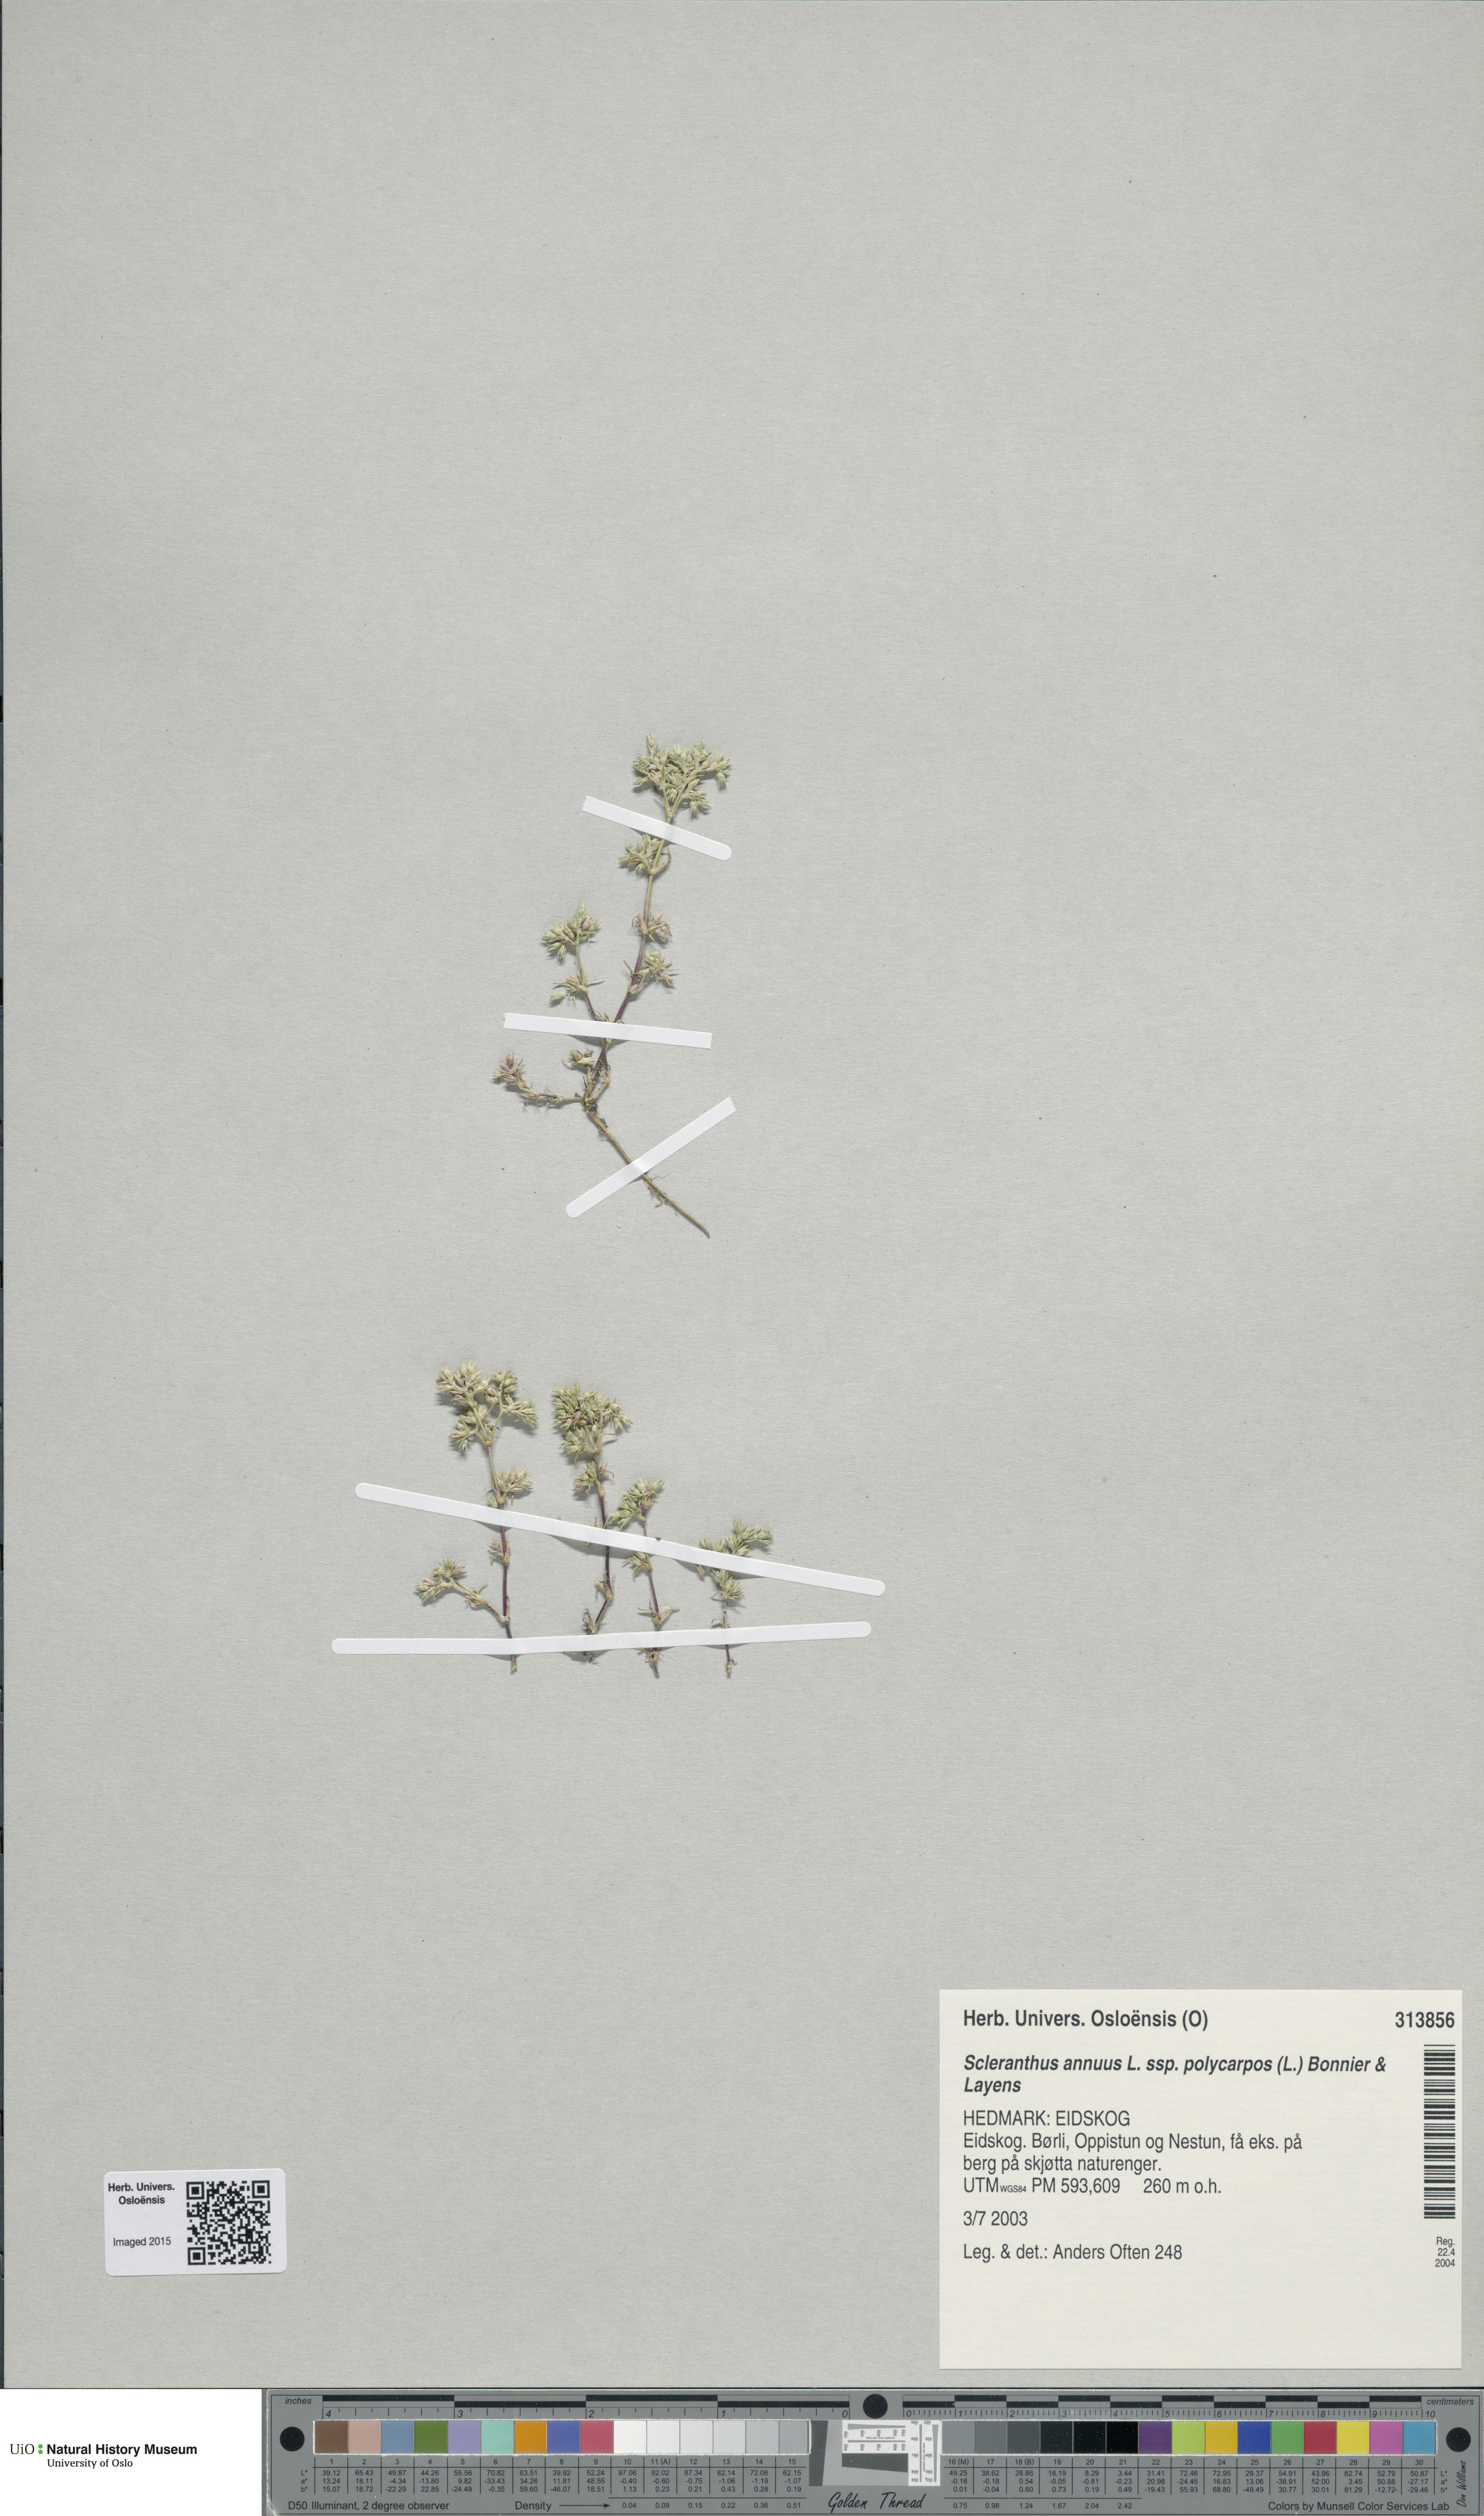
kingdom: Plantae
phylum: Tracheophyta
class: Magnoliopsida
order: Caryophyllales
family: Caryophyllaceae
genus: Scleranthus
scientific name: Scleranthus annuus
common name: Annual knawel
